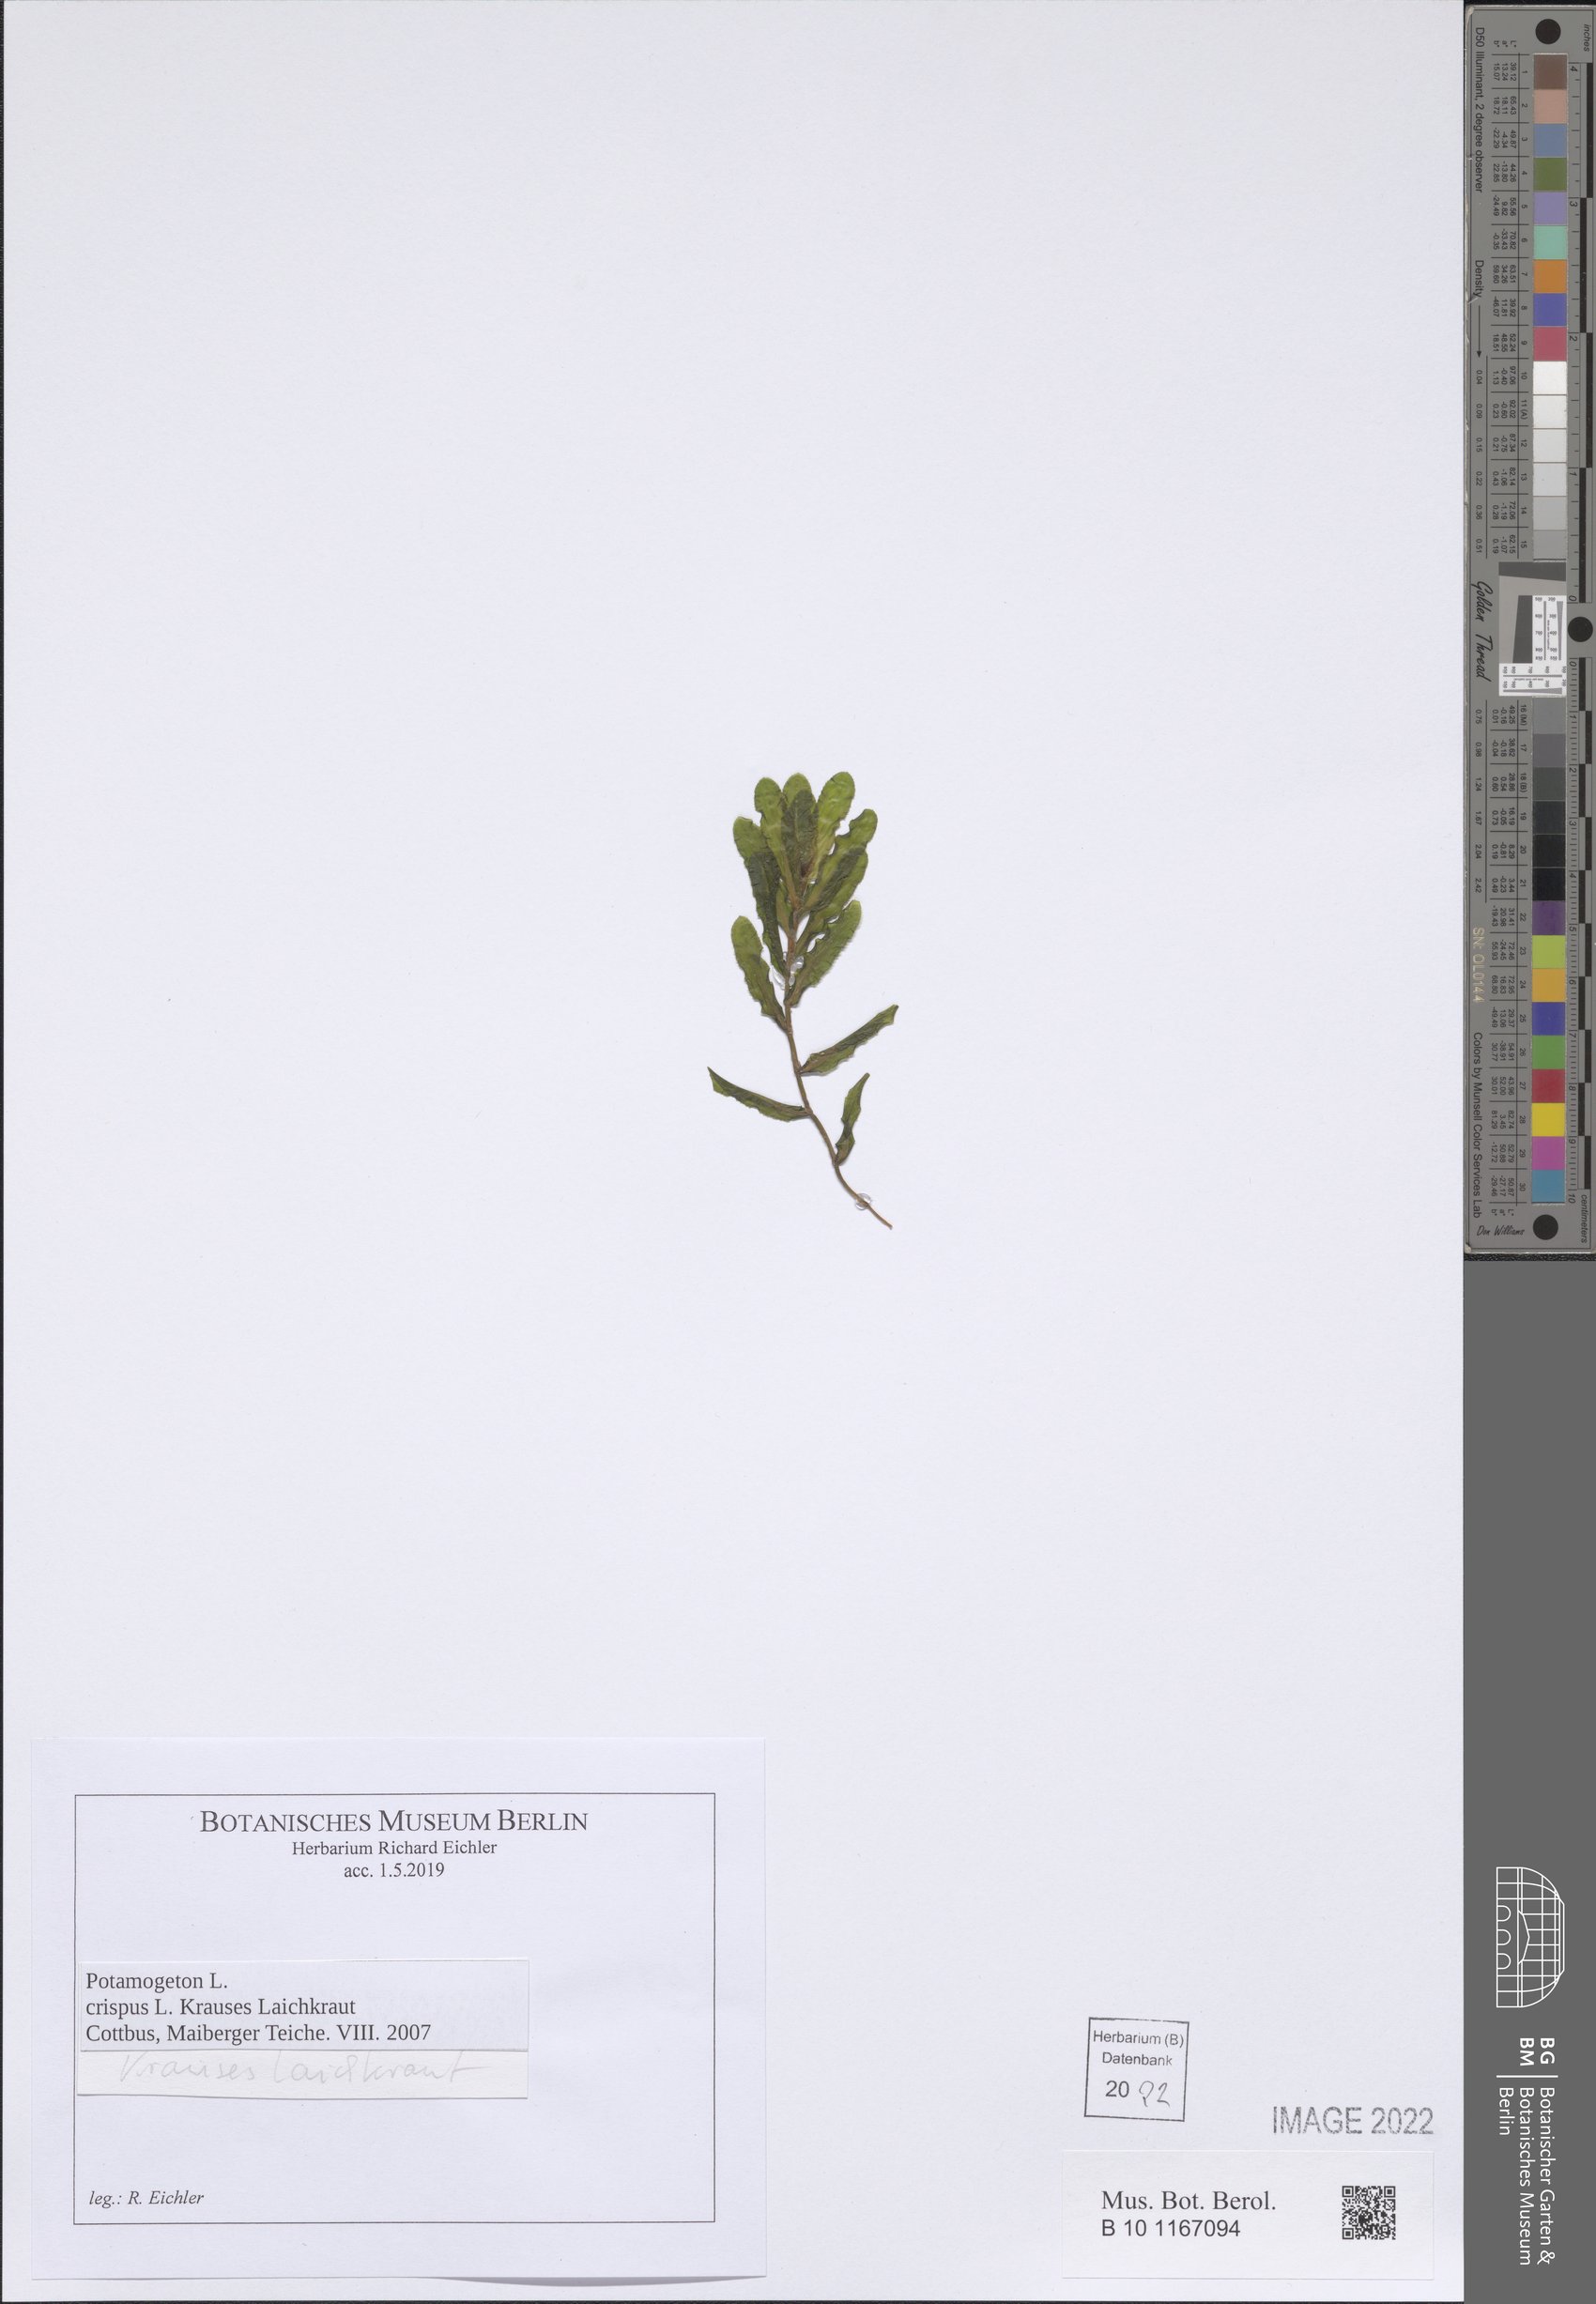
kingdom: Plantae
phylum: Tracheophyta
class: Liliopsida
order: Alismatales
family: Potamogetonaceae
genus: Potamogeton
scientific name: Potamogeton crispus
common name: Curled pondweed
